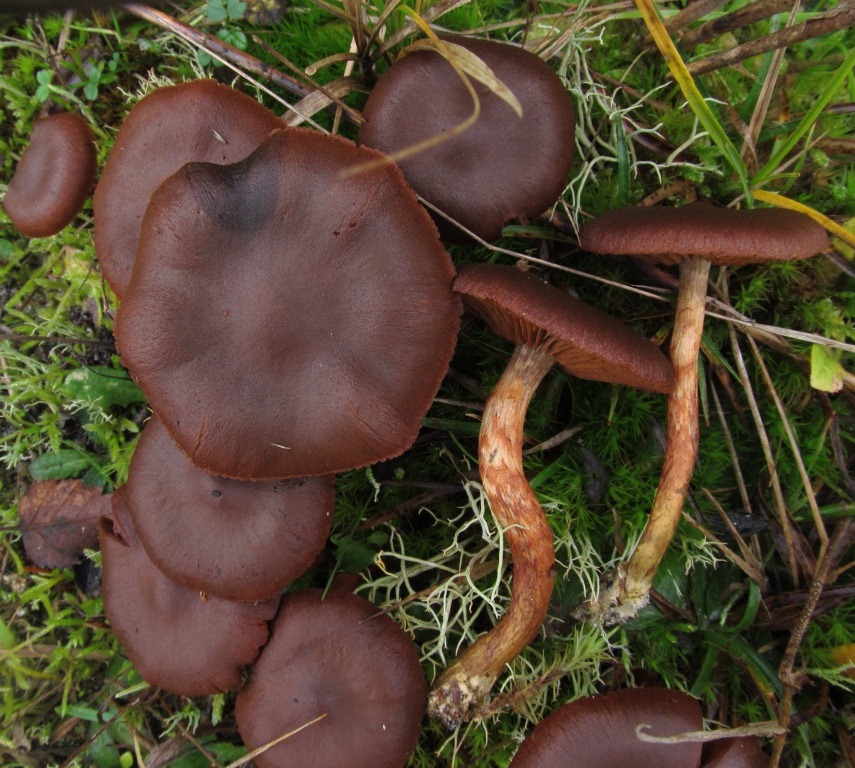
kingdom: Fungi
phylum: Basidiomycota
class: Agaricomycetes
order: Agaricales
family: Cortinariaceae
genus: Cortinarius
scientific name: Cortinarius cinnamomeus
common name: kanel-slørhat
